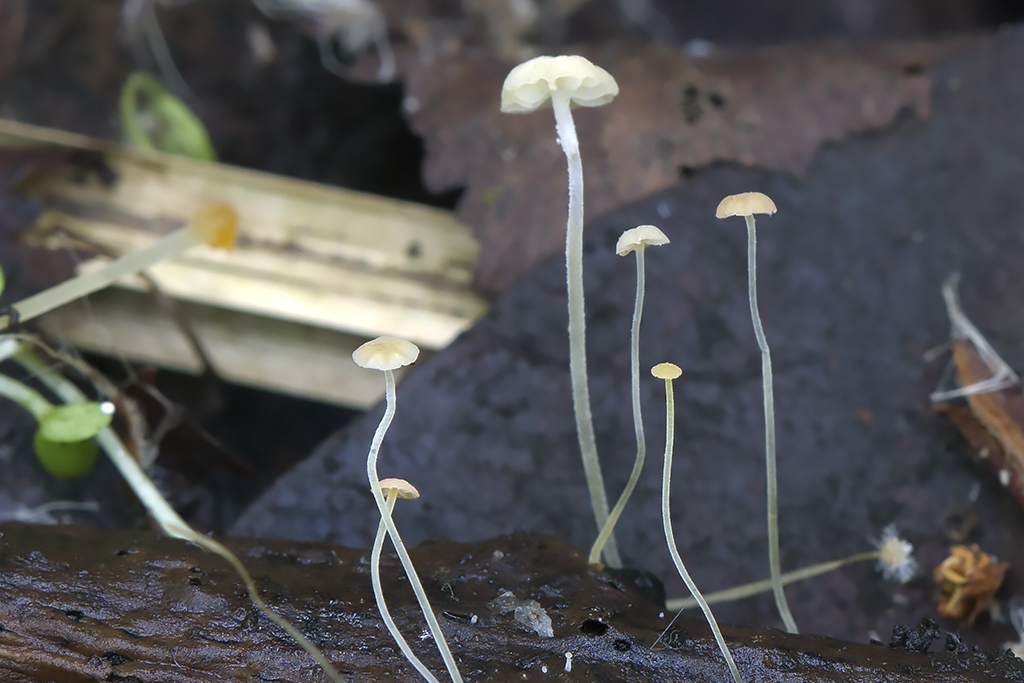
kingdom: Fungi
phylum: Basidiomycota
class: Agaricomycetes
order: Agaricales
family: Mycenaceae
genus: Mycena
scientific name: Mycena acicula
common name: orange huesvamp
